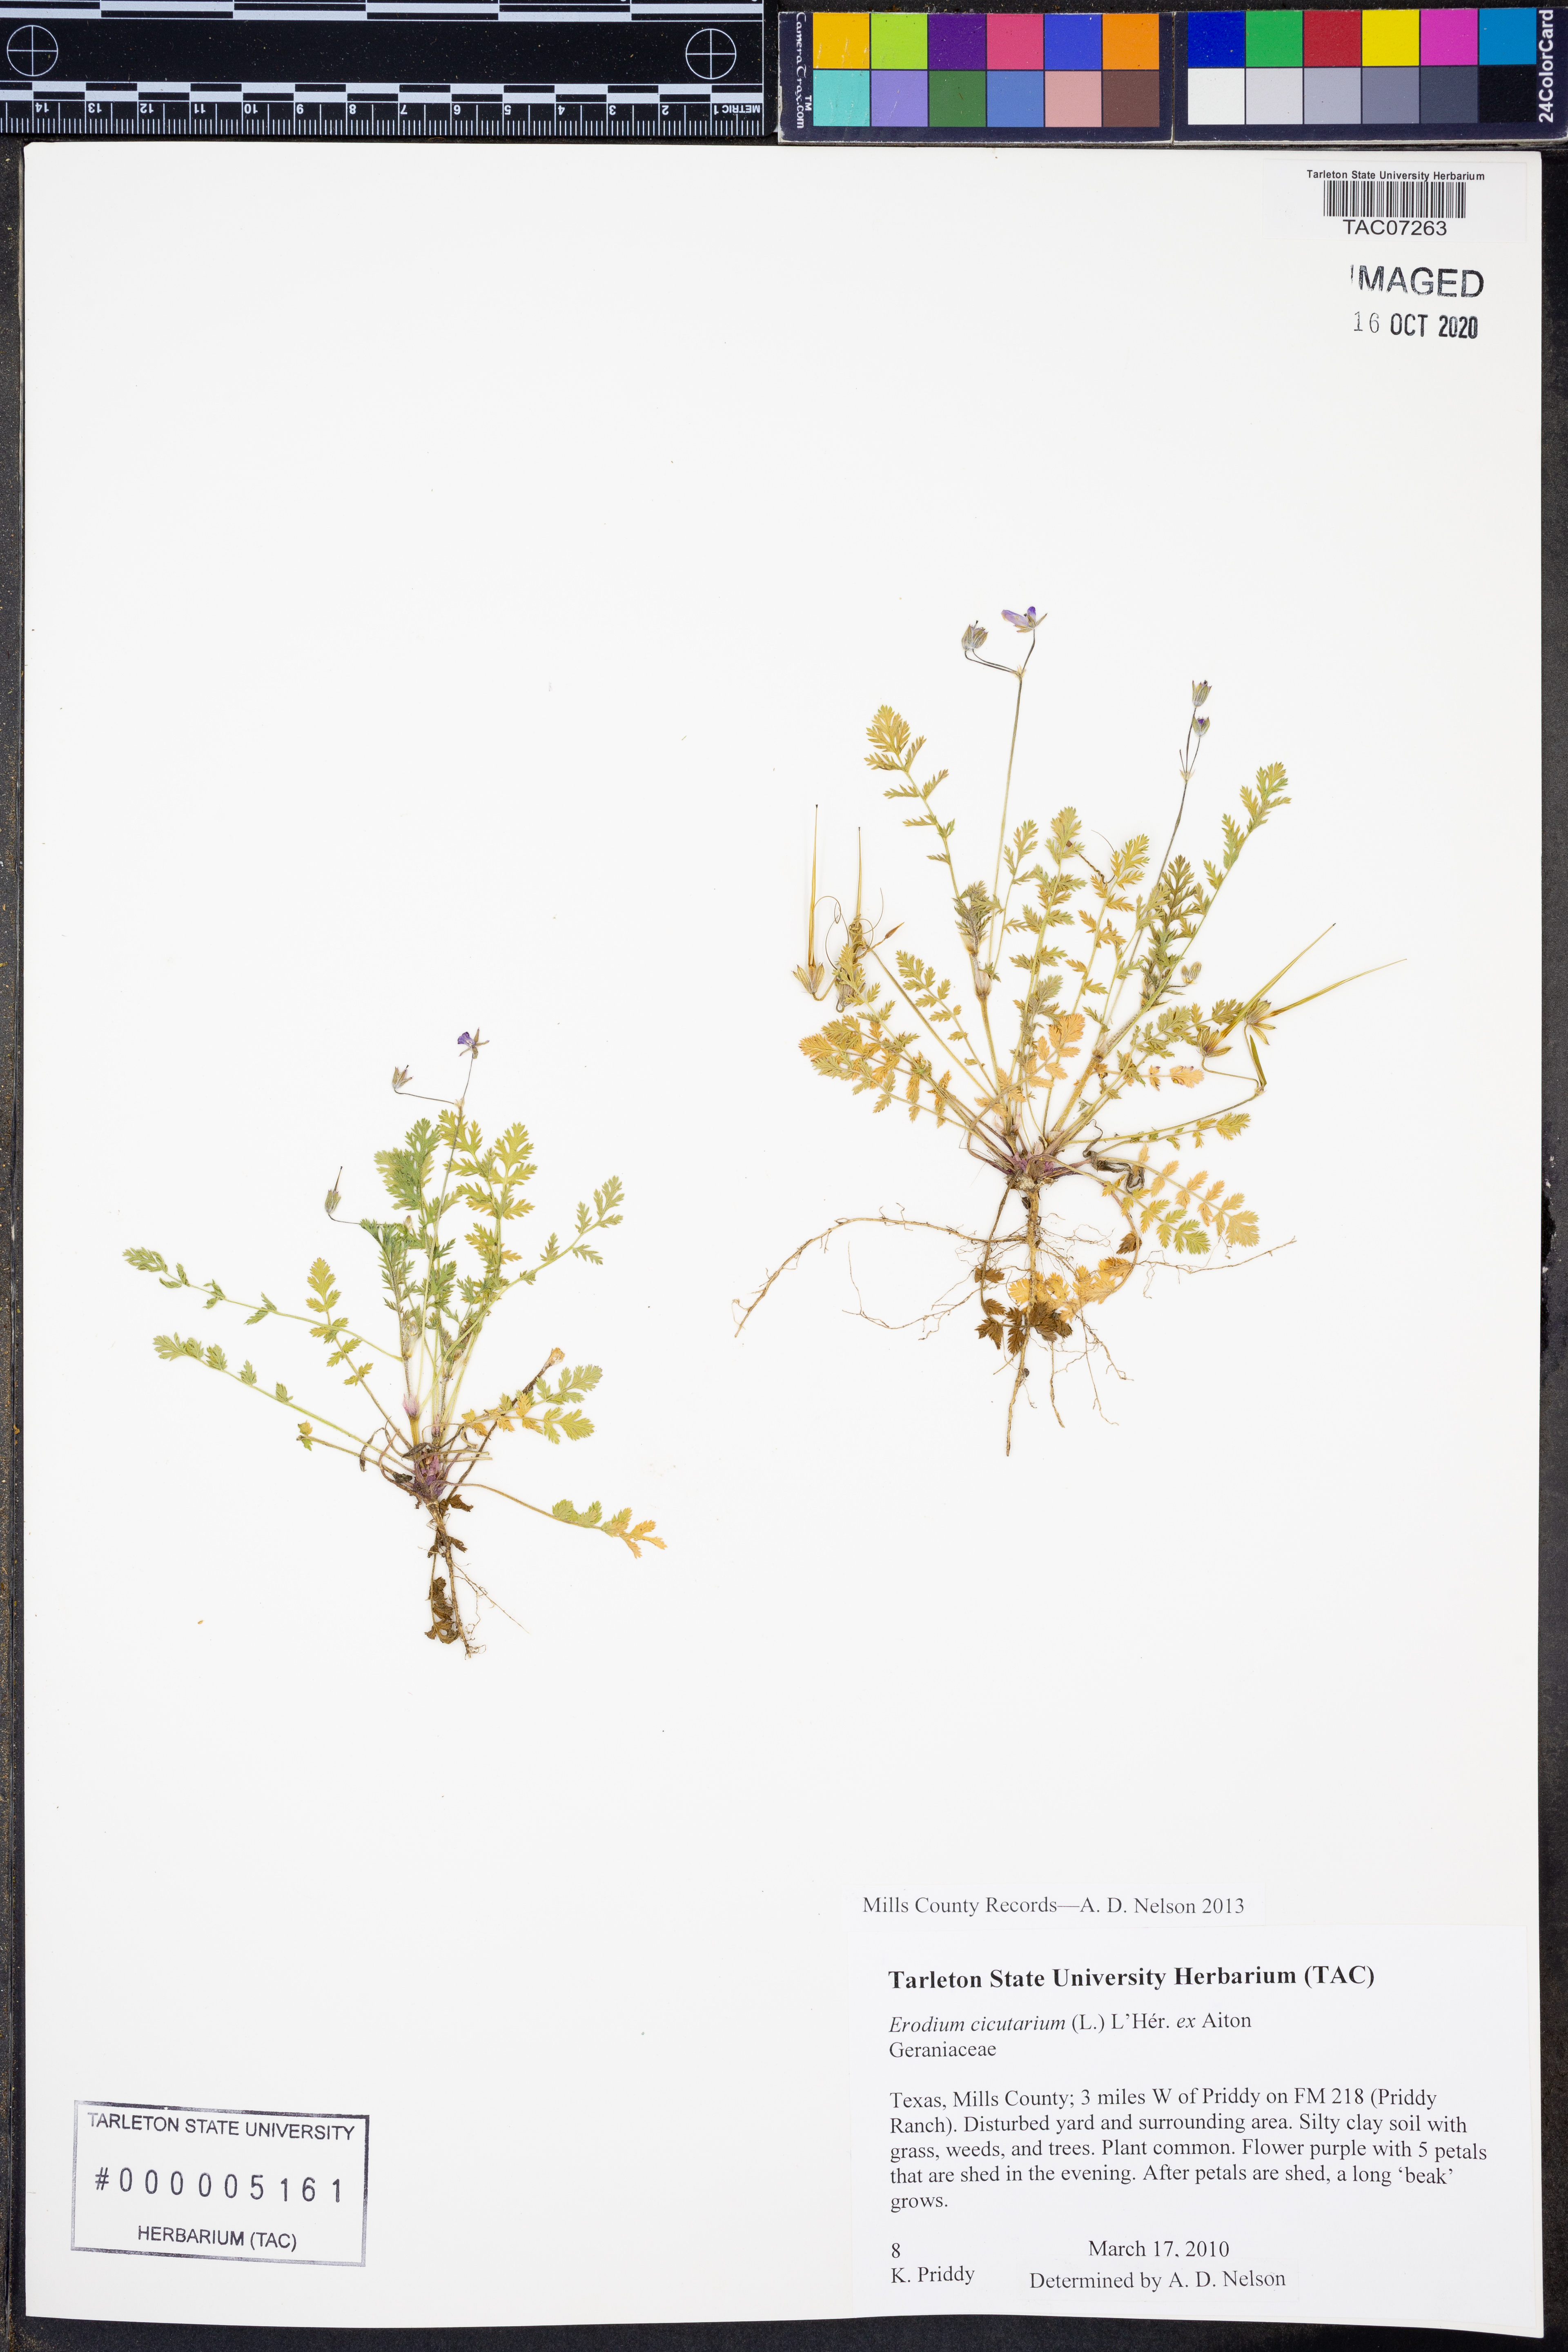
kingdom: Plantae
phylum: Tracheophyta
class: Magnoliopsida
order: Geraniales
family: Geraniaceae
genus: Erodium
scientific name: Erodium cicutarium
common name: Common stork's-bill
